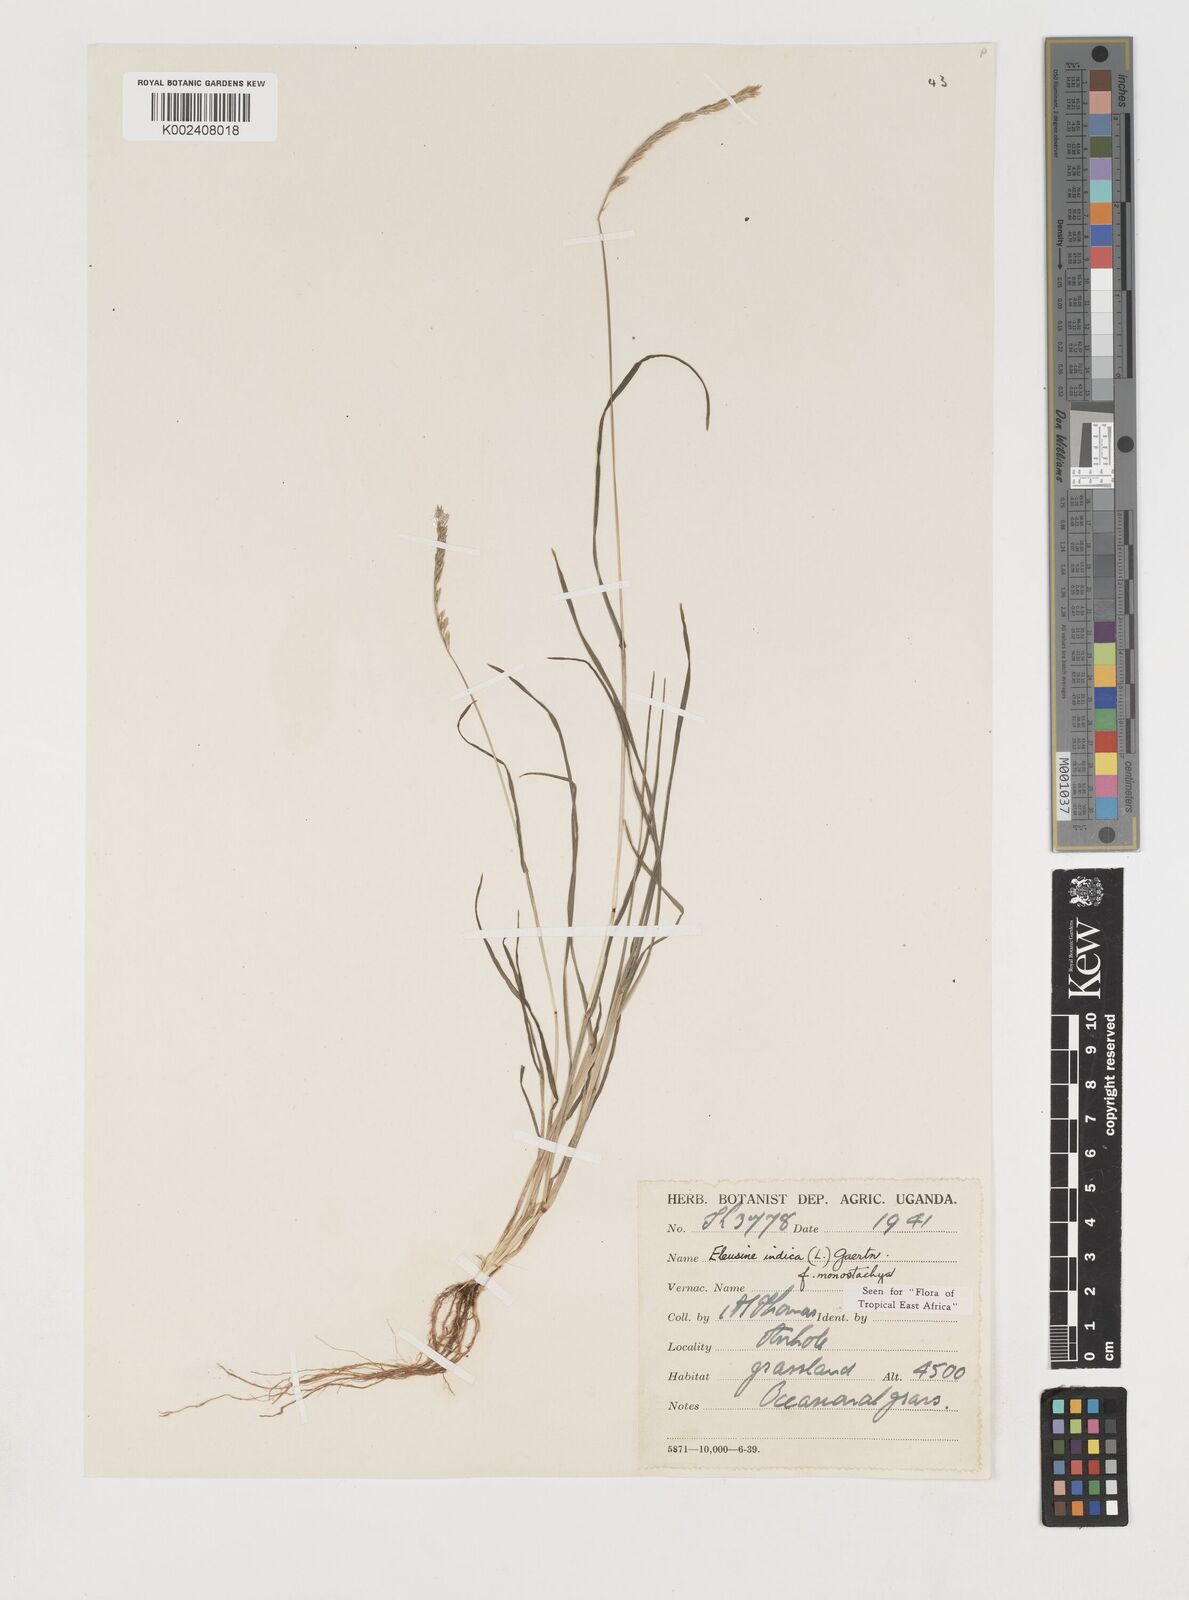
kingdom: Plantae
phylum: Tracheophyta
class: Liliopsida
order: Poales
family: Poaceae
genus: Eleusine
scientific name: Eleusine indica
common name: Yard-grass
